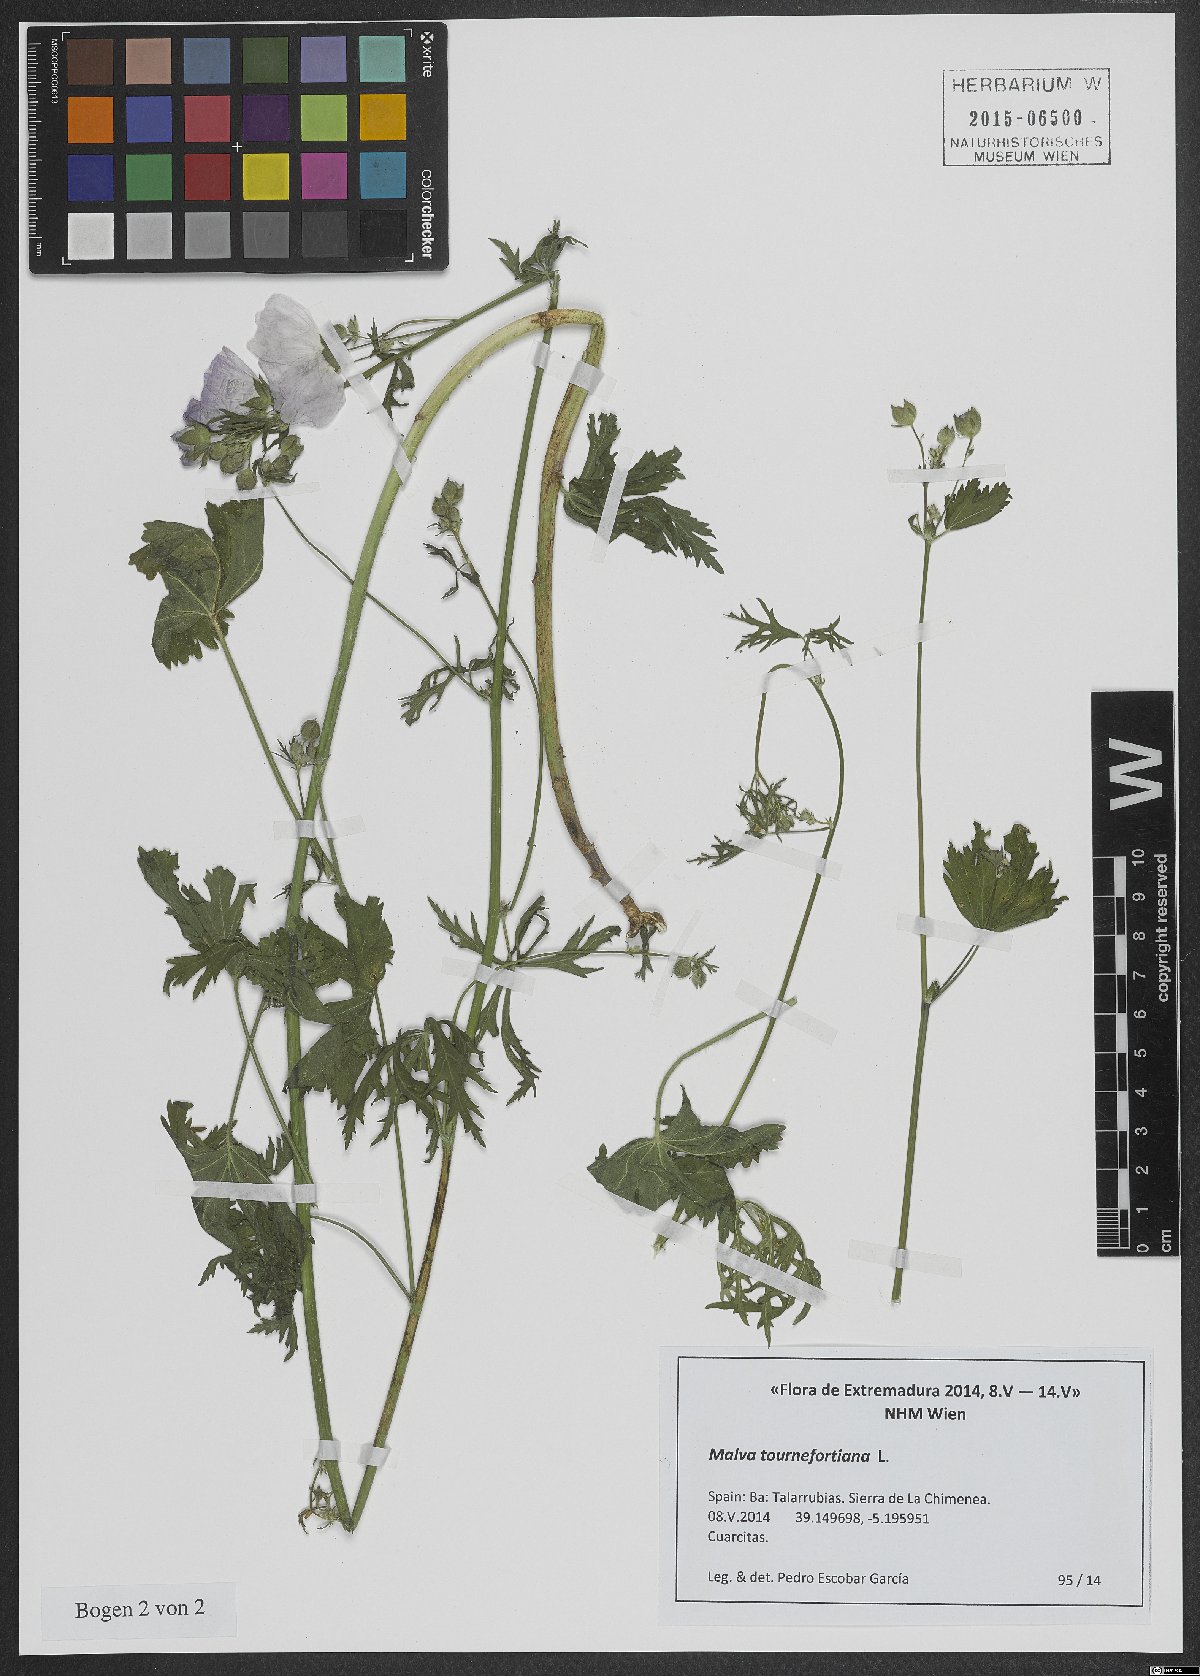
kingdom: Plantae
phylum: Tracheophyta
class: Magnoliopsida
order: Malvales
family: Malvaceae
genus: Malva
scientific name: Malva tournefortiana
